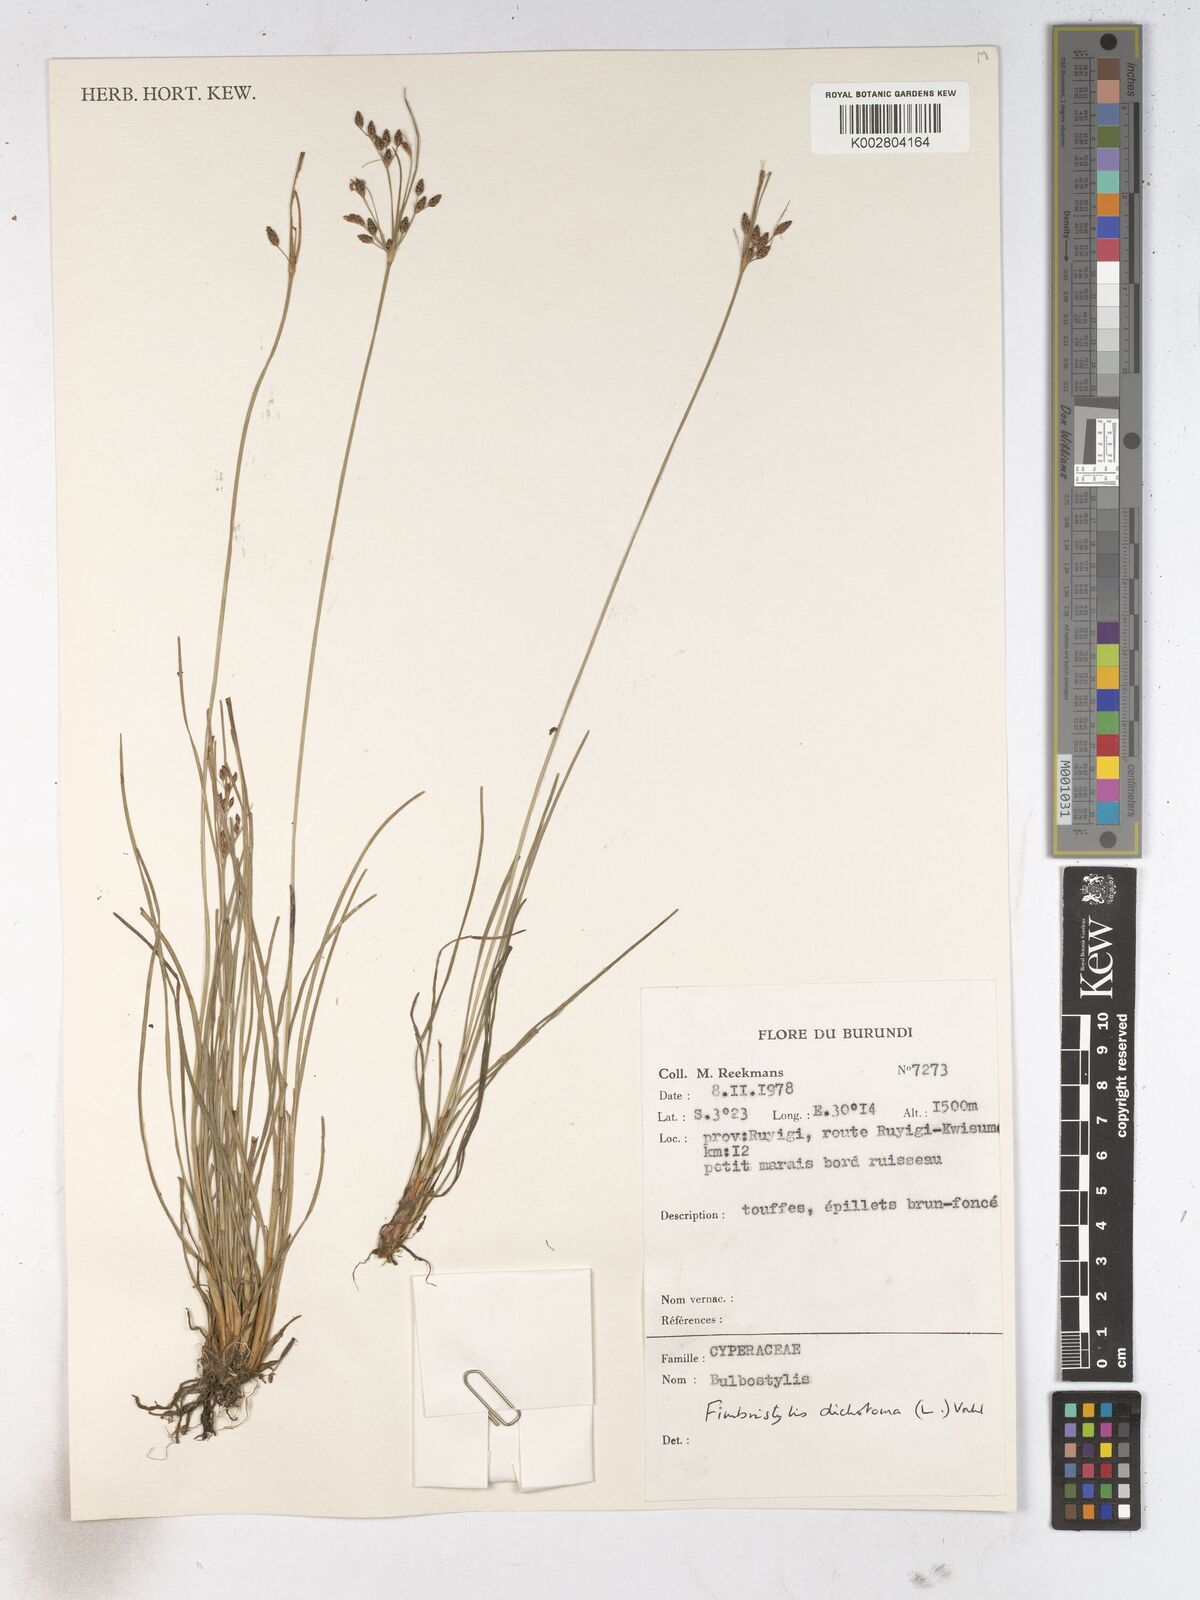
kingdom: Plantae
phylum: Tracheophyta
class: Liliopsida
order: Poales
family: Cyperaceae
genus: Fimbristylis
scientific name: Fimbristylis dichotoma
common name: Forked fimbry
